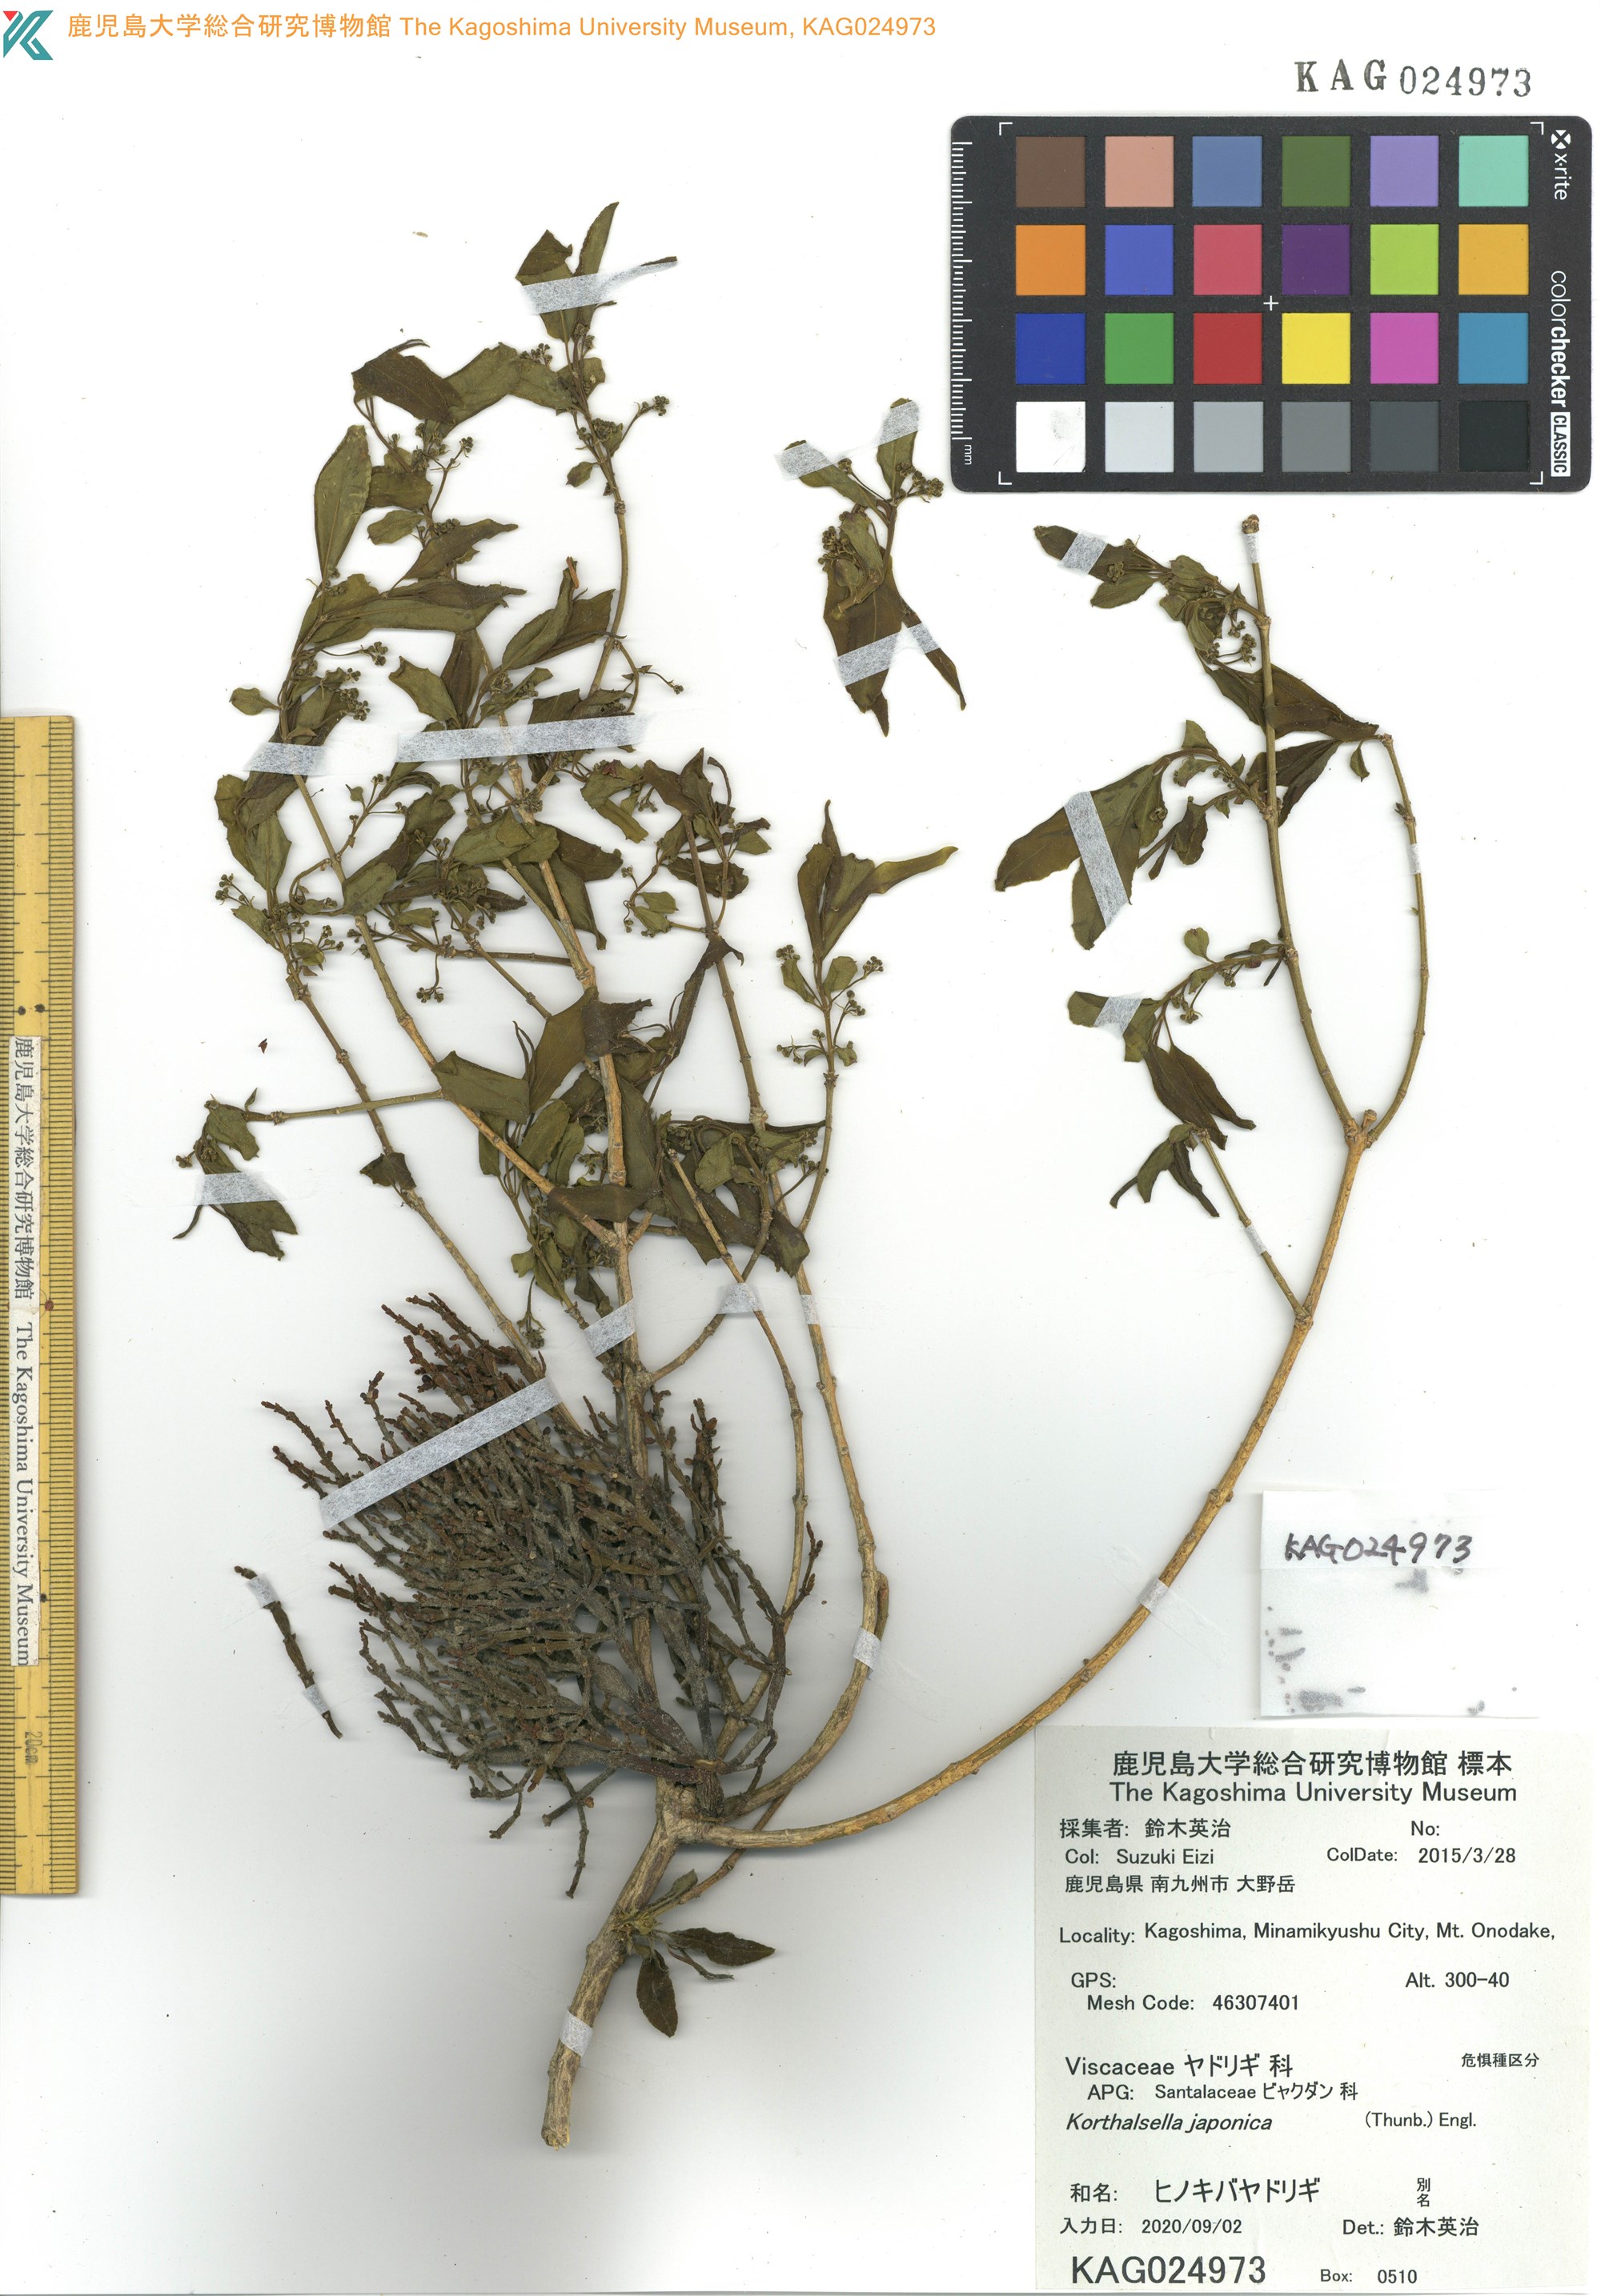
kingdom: Plantae
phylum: Tracheophyta
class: Magnoliopsida
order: Santalales
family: Viscaceae
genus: Korthalsella
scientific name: Korthalsella japonica
